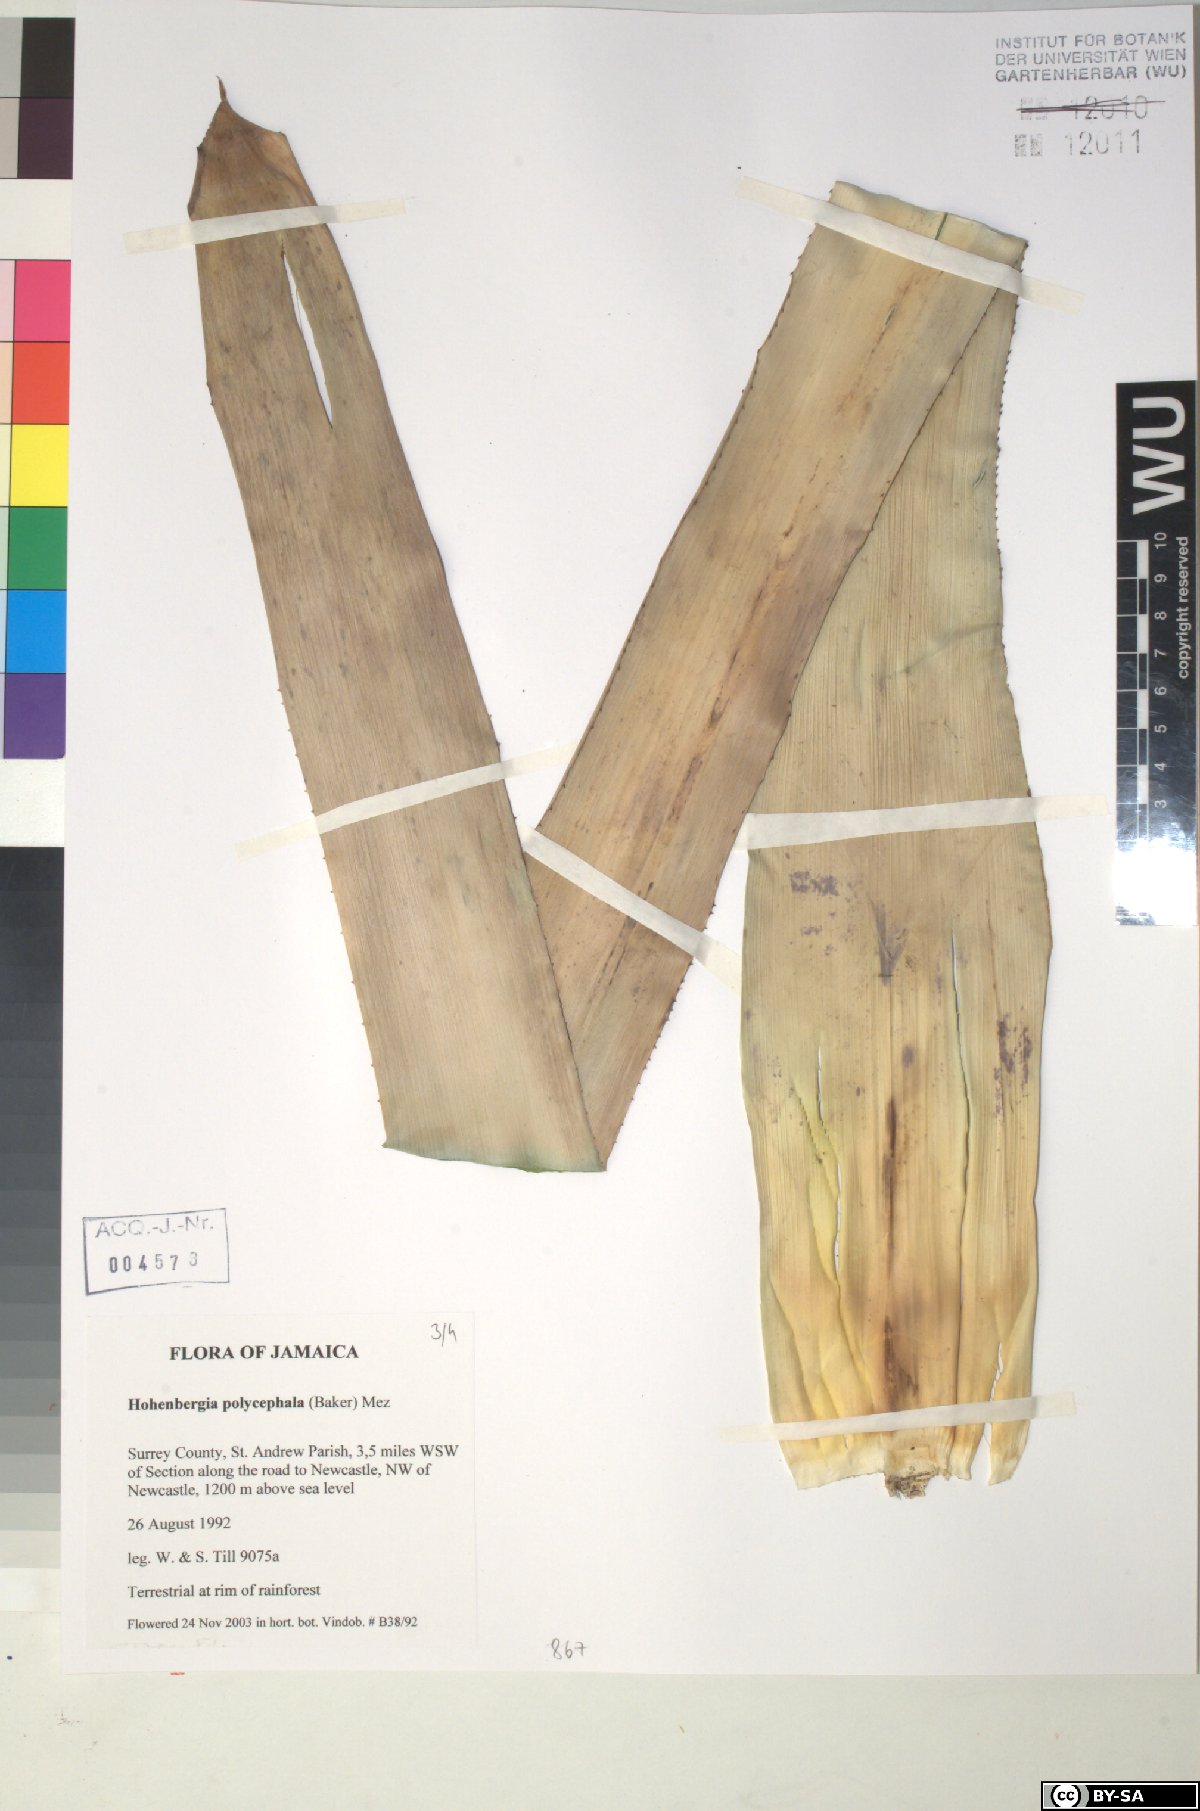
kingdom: Plantae
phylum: Tracheophyta
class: Liliopsida
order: Poales
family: Bromeliaceae
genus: Wittmackia
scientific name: Wittmackia polycephala
